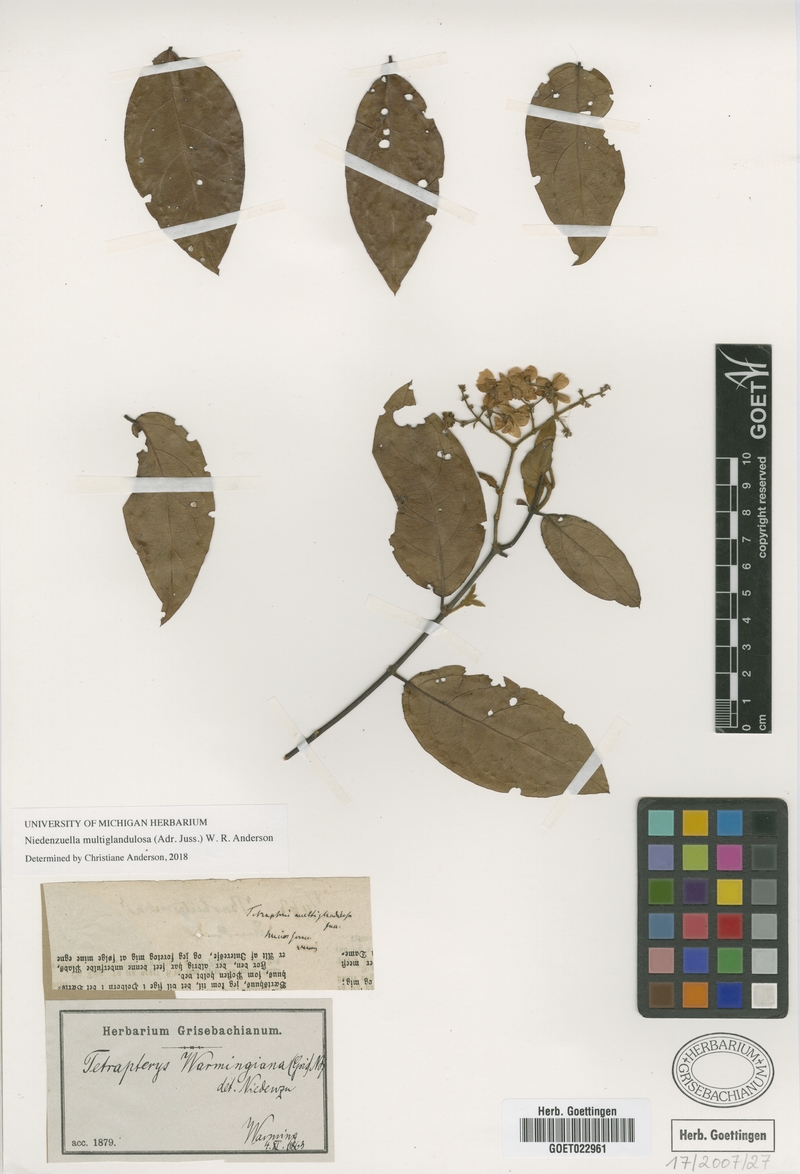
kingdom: Plantae
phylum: Tracheophyta
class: Magnoliopsida
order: Malpighiales
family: Malpighiaceae
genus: Niedenzuella
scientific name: Niedenzuella multiglandulosa
